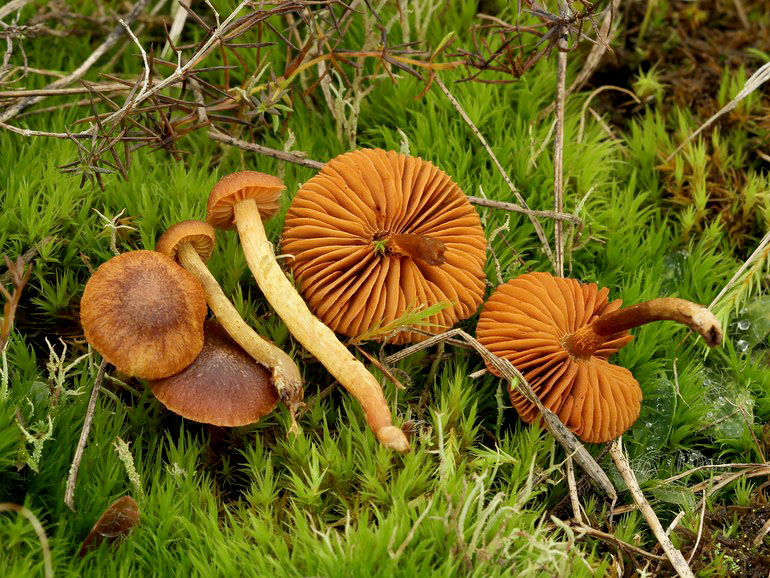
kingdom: Fungi
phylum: Basidiomycota
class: Agaricomycetes
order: Agaricales
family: Cortinariaceae
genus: Cortinarius
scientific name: Cortinarius pratensis
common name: hede-slørhat
